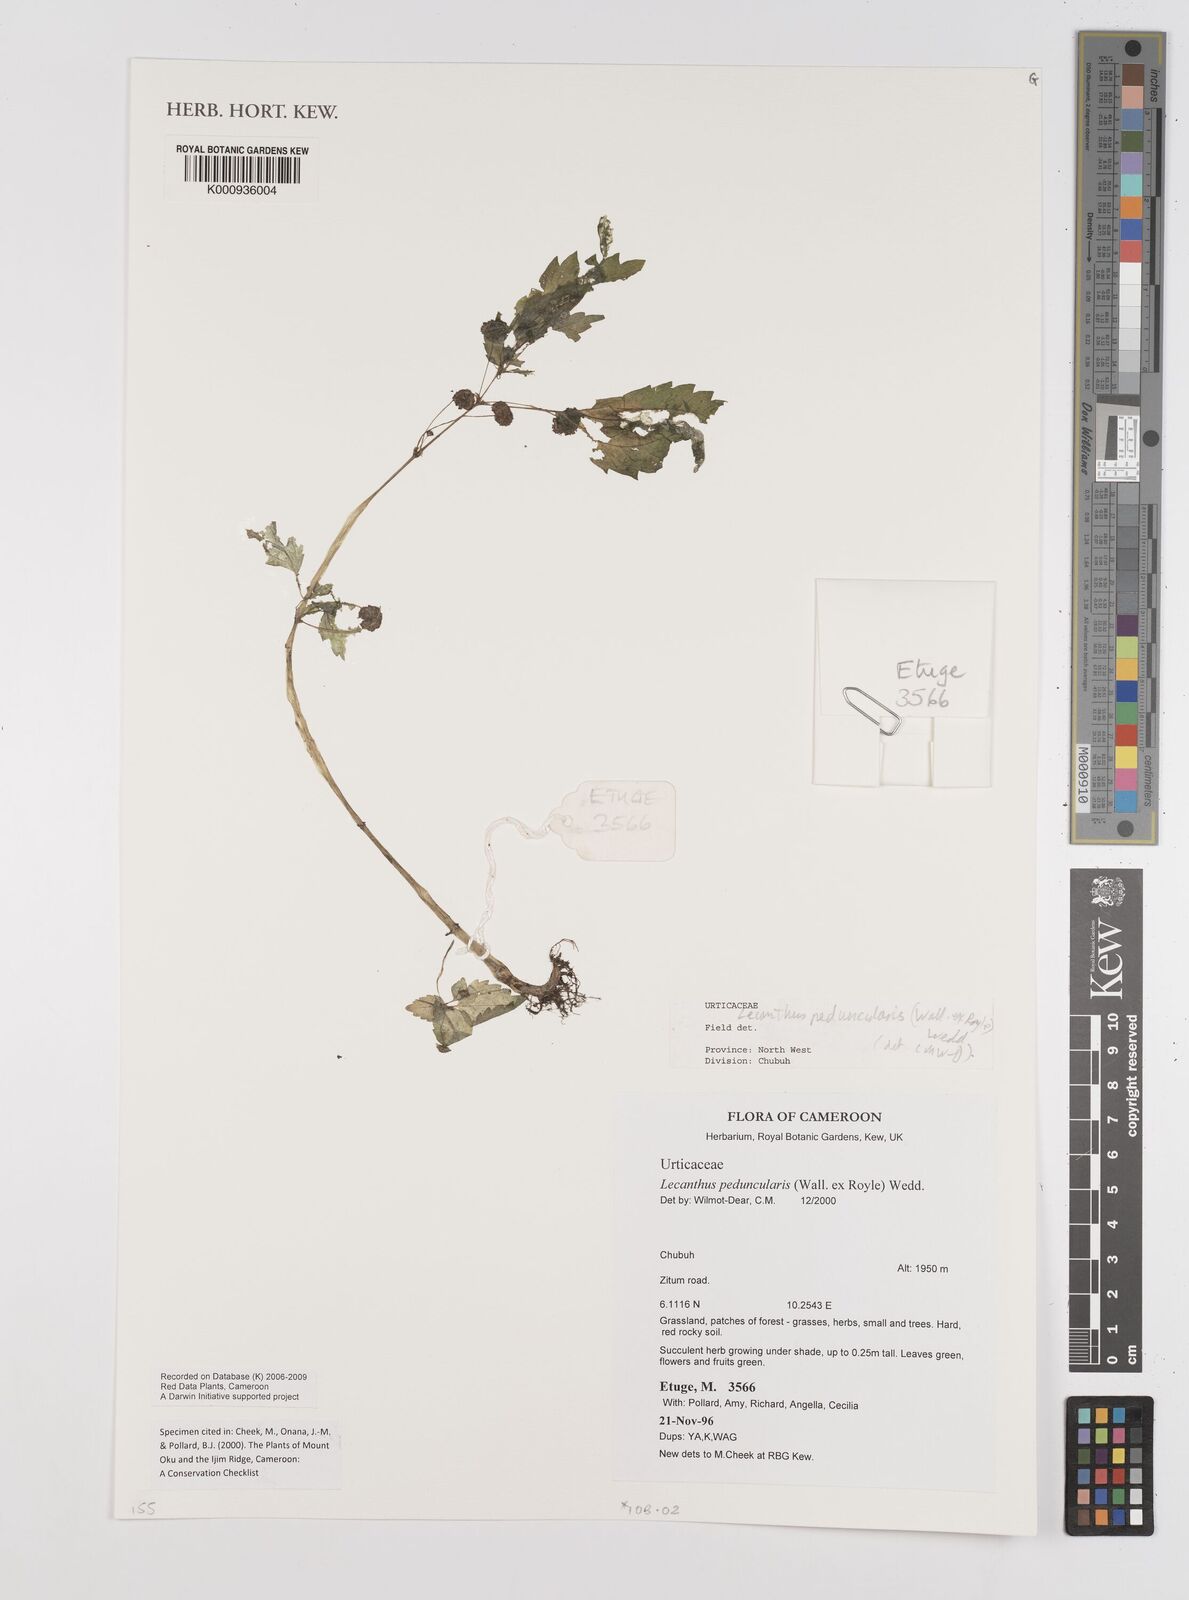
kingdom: Plantae
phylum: Tracheophyta
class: Magnoliopsida
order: Rosales
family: Urticaceae
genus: Lecanthus
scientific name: Lecanthus peduncularis
